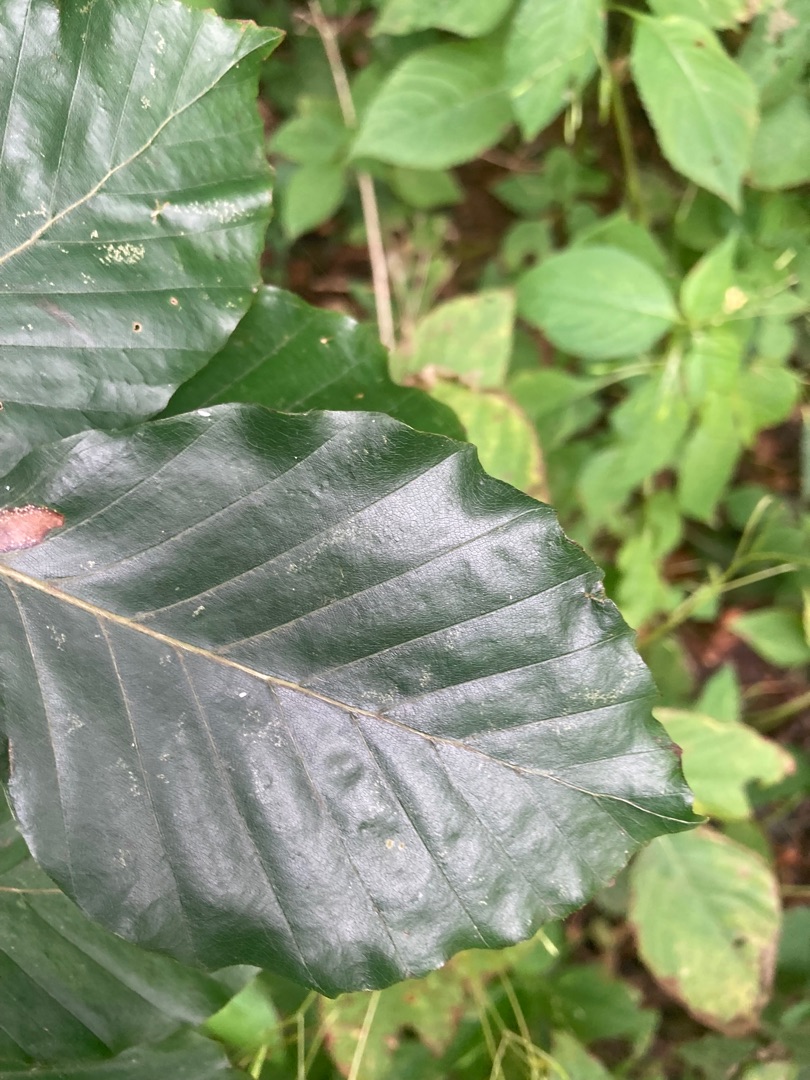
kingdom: Plantae
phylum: Tracheophyta
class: Magnoliopsida
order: Fagales
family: Fagaceae
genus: Fagus
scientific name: Fagus sylvatica
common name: Bøg
